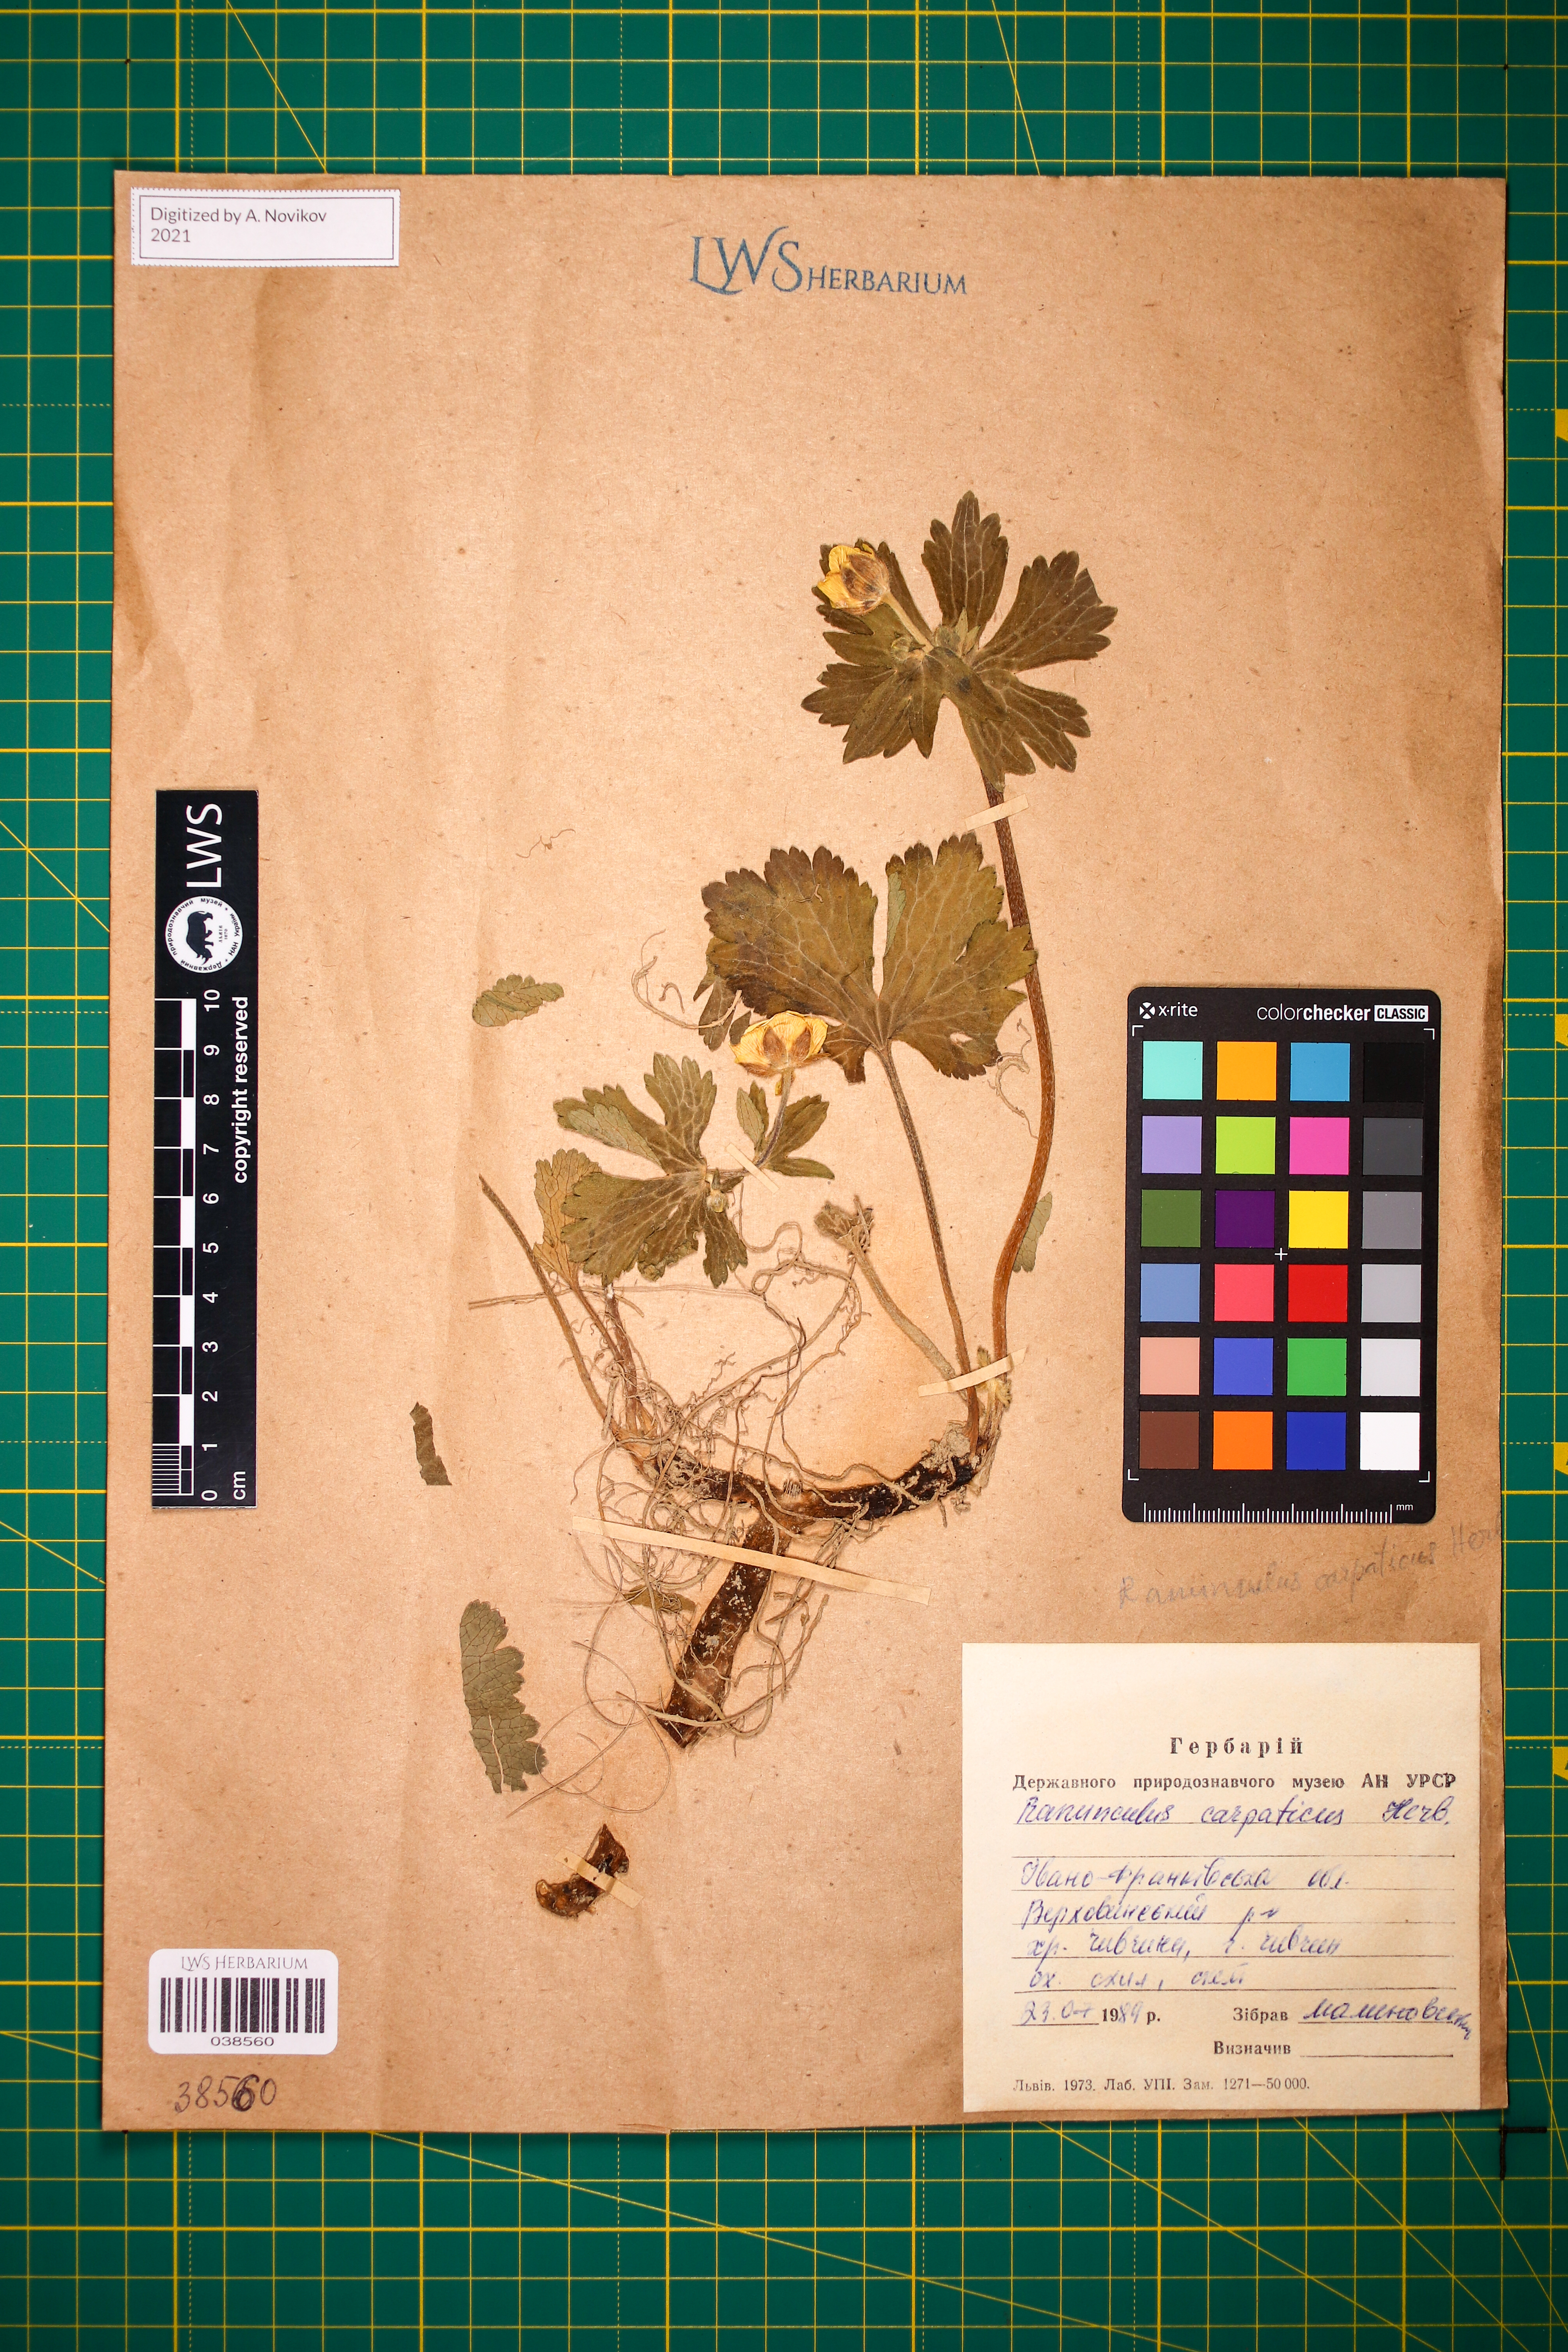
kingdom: Plantae
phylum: Tracheophyta
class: Magnoliopsida
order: Ranunculales
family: Ranunculaceae
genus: Ranunculus
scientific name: Ranunculus carpaticus
